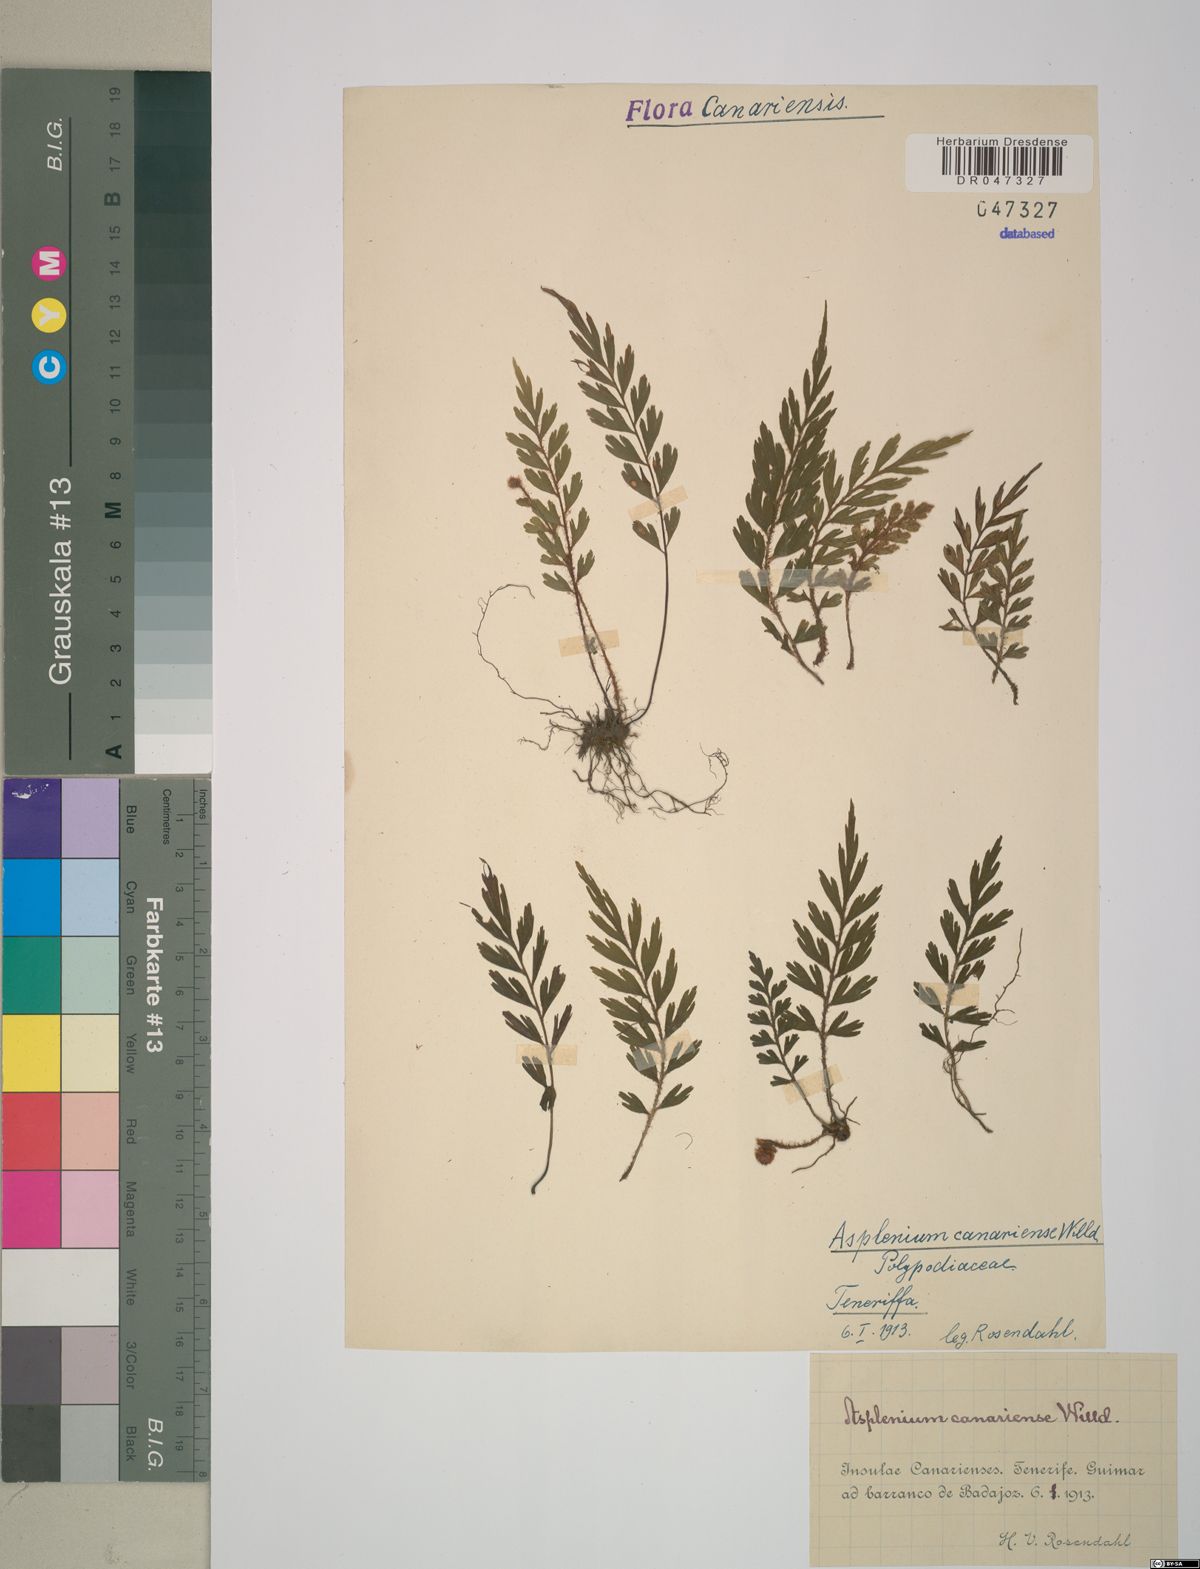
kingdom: Plantae
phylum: Tracheophyta
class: Polypodiopsida
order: Polypodiales
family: Aspleniaceae
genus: Asplenium
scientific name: Asplenium canariense
